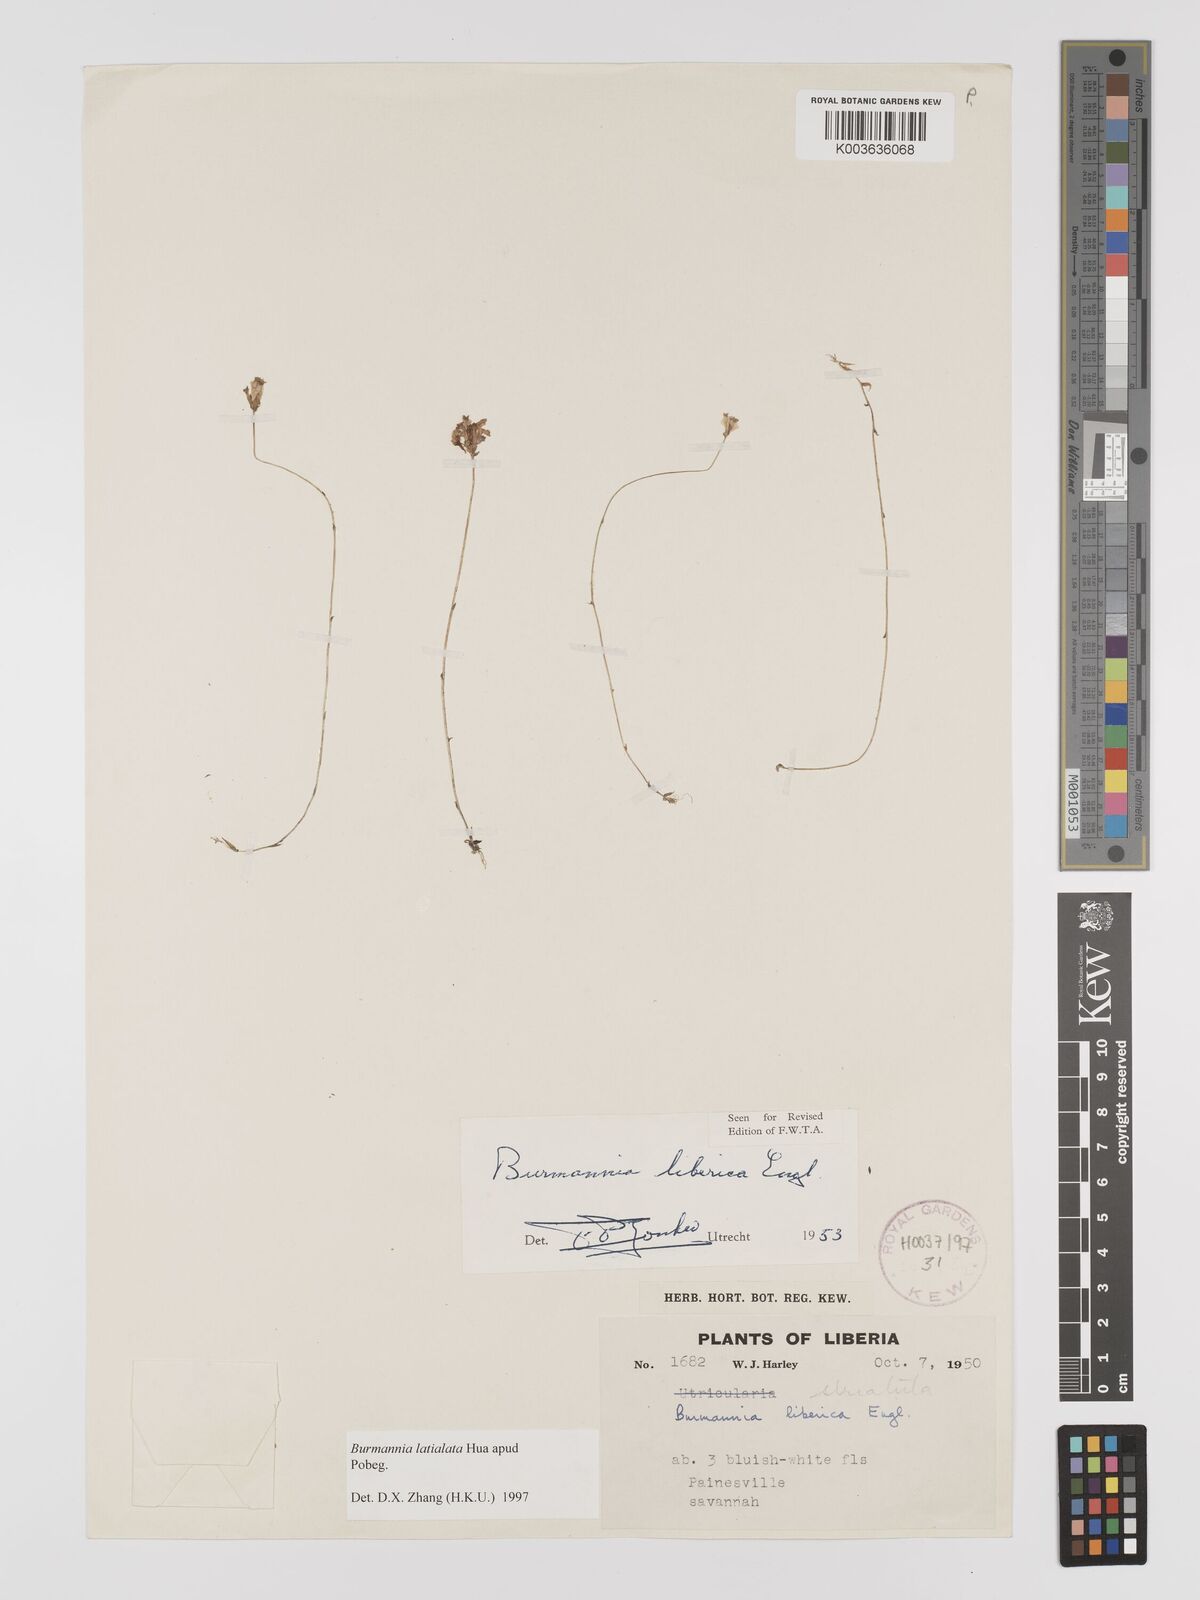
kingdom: Plantae
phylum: Tracheophyta
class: Liliopsida
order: Dioscoreales
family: Burmanniaceae
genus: Burmannia
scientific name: Burmannia madagascariensis
